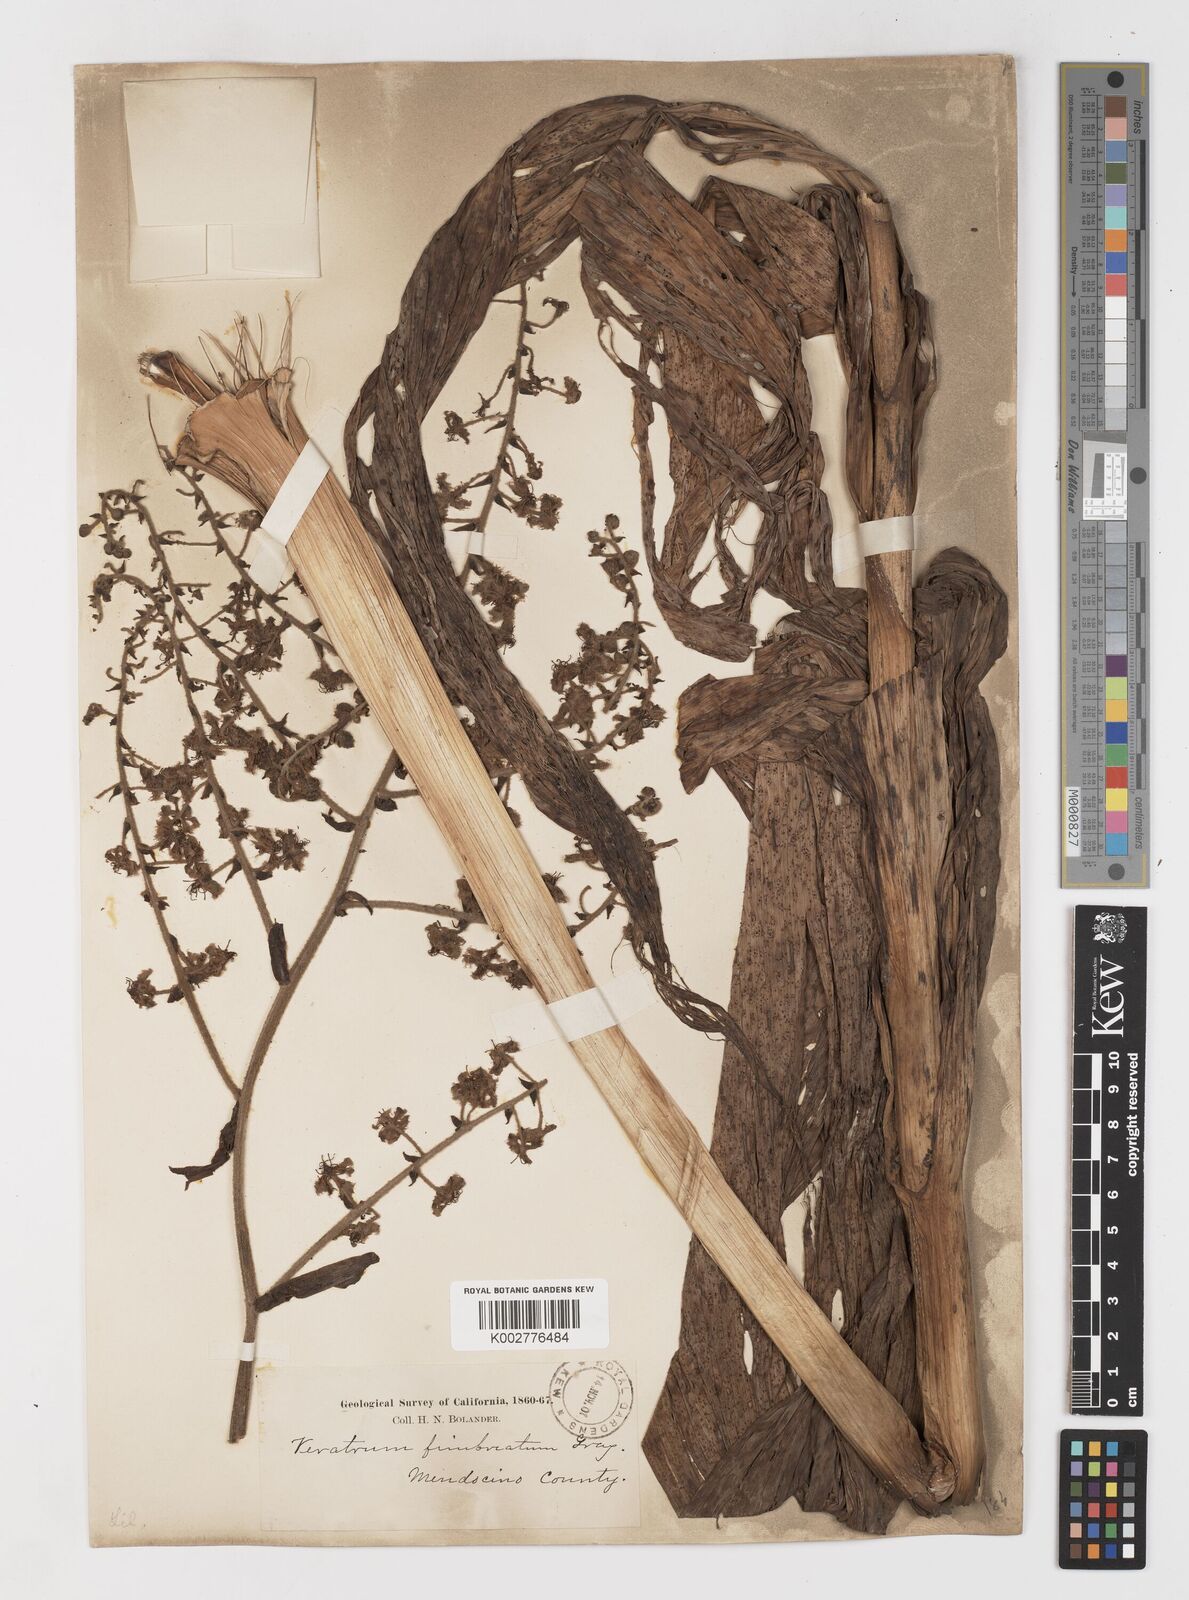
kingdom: Plantae
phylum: Tracheophyta
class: Liliopsida
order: Liliales
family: Melanthiaceae
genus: Veratrum
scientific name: Veratrum fimbriatum
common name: Fringe false hellobore
